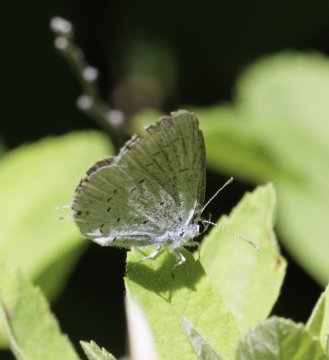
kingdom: Animalia
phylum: Arthropoda
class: Insecta
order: Lepidoptera
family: Lycaenidae
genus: Elkalyce
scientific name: Elkalyce amyntula
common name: Western Tailed-Blue
